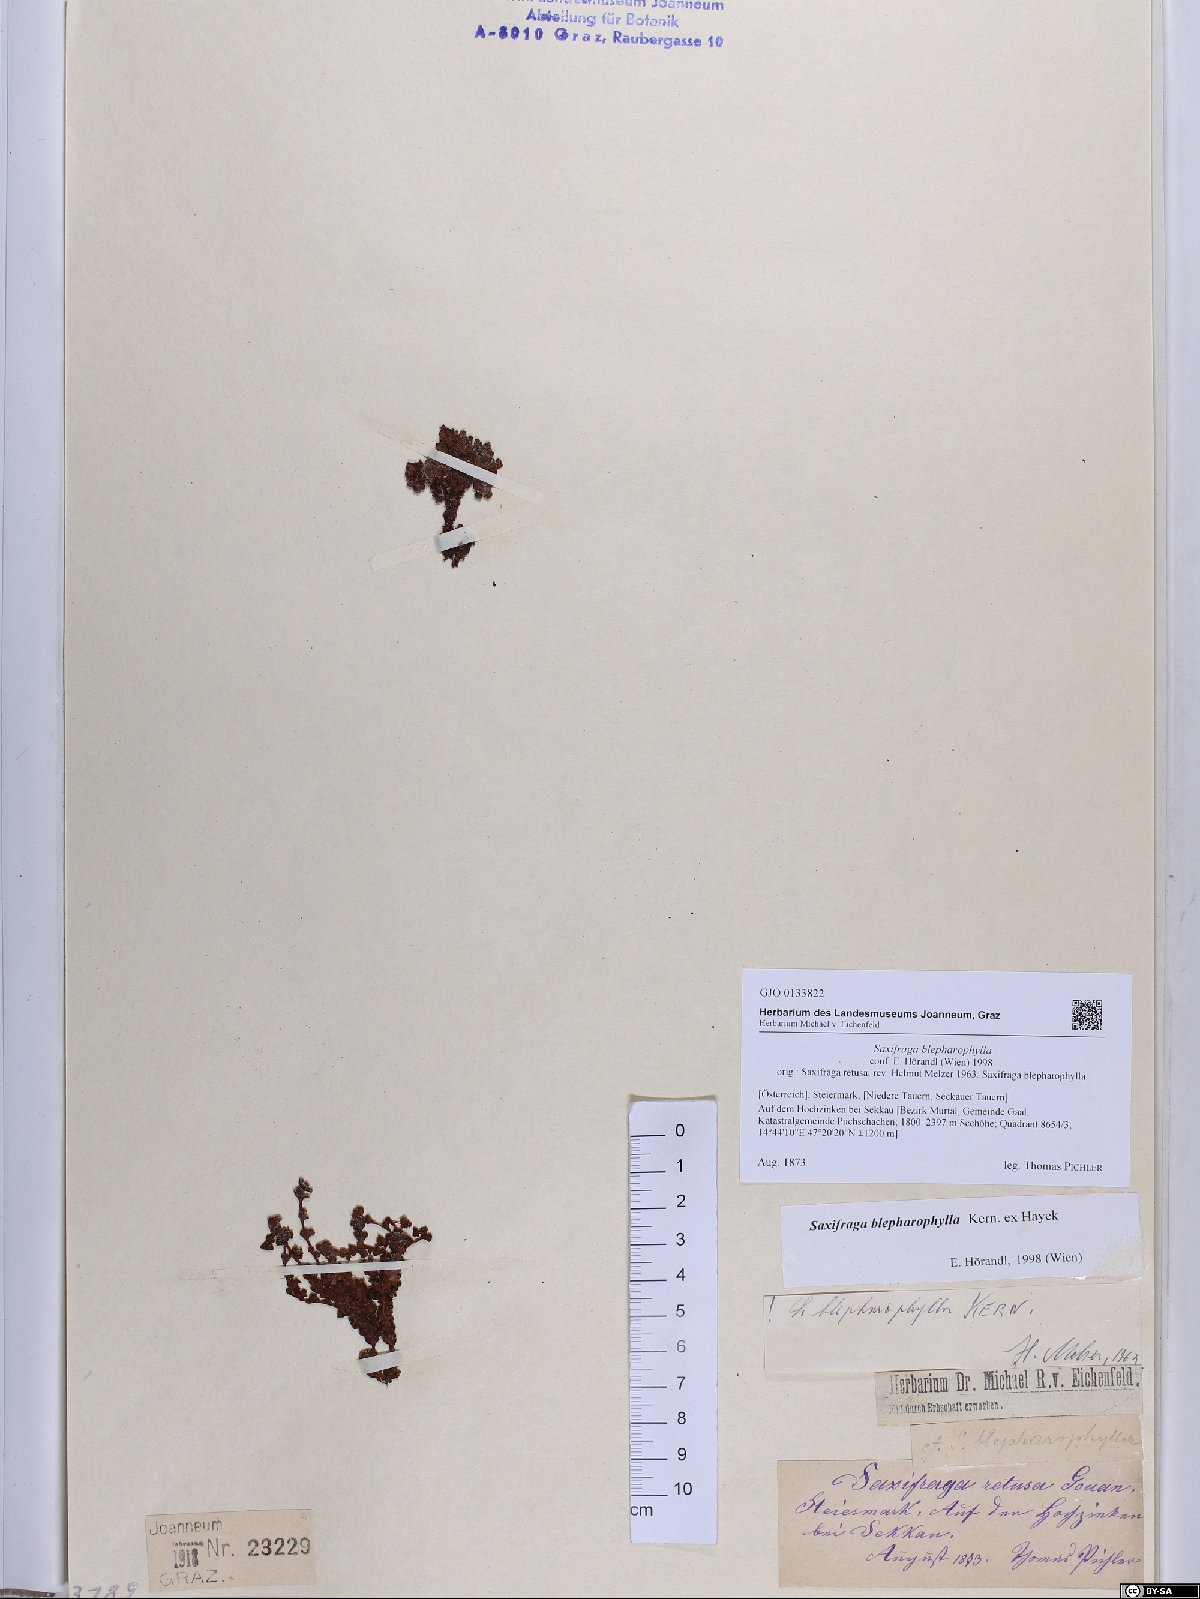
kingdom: Plantae
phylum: Tracheophyta
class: Magnoliopsida
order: Saxifragales
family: Saxifragaceae
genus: Saxifraga
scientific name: Saxifraga oppositifolia
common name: Purple saxifrage
